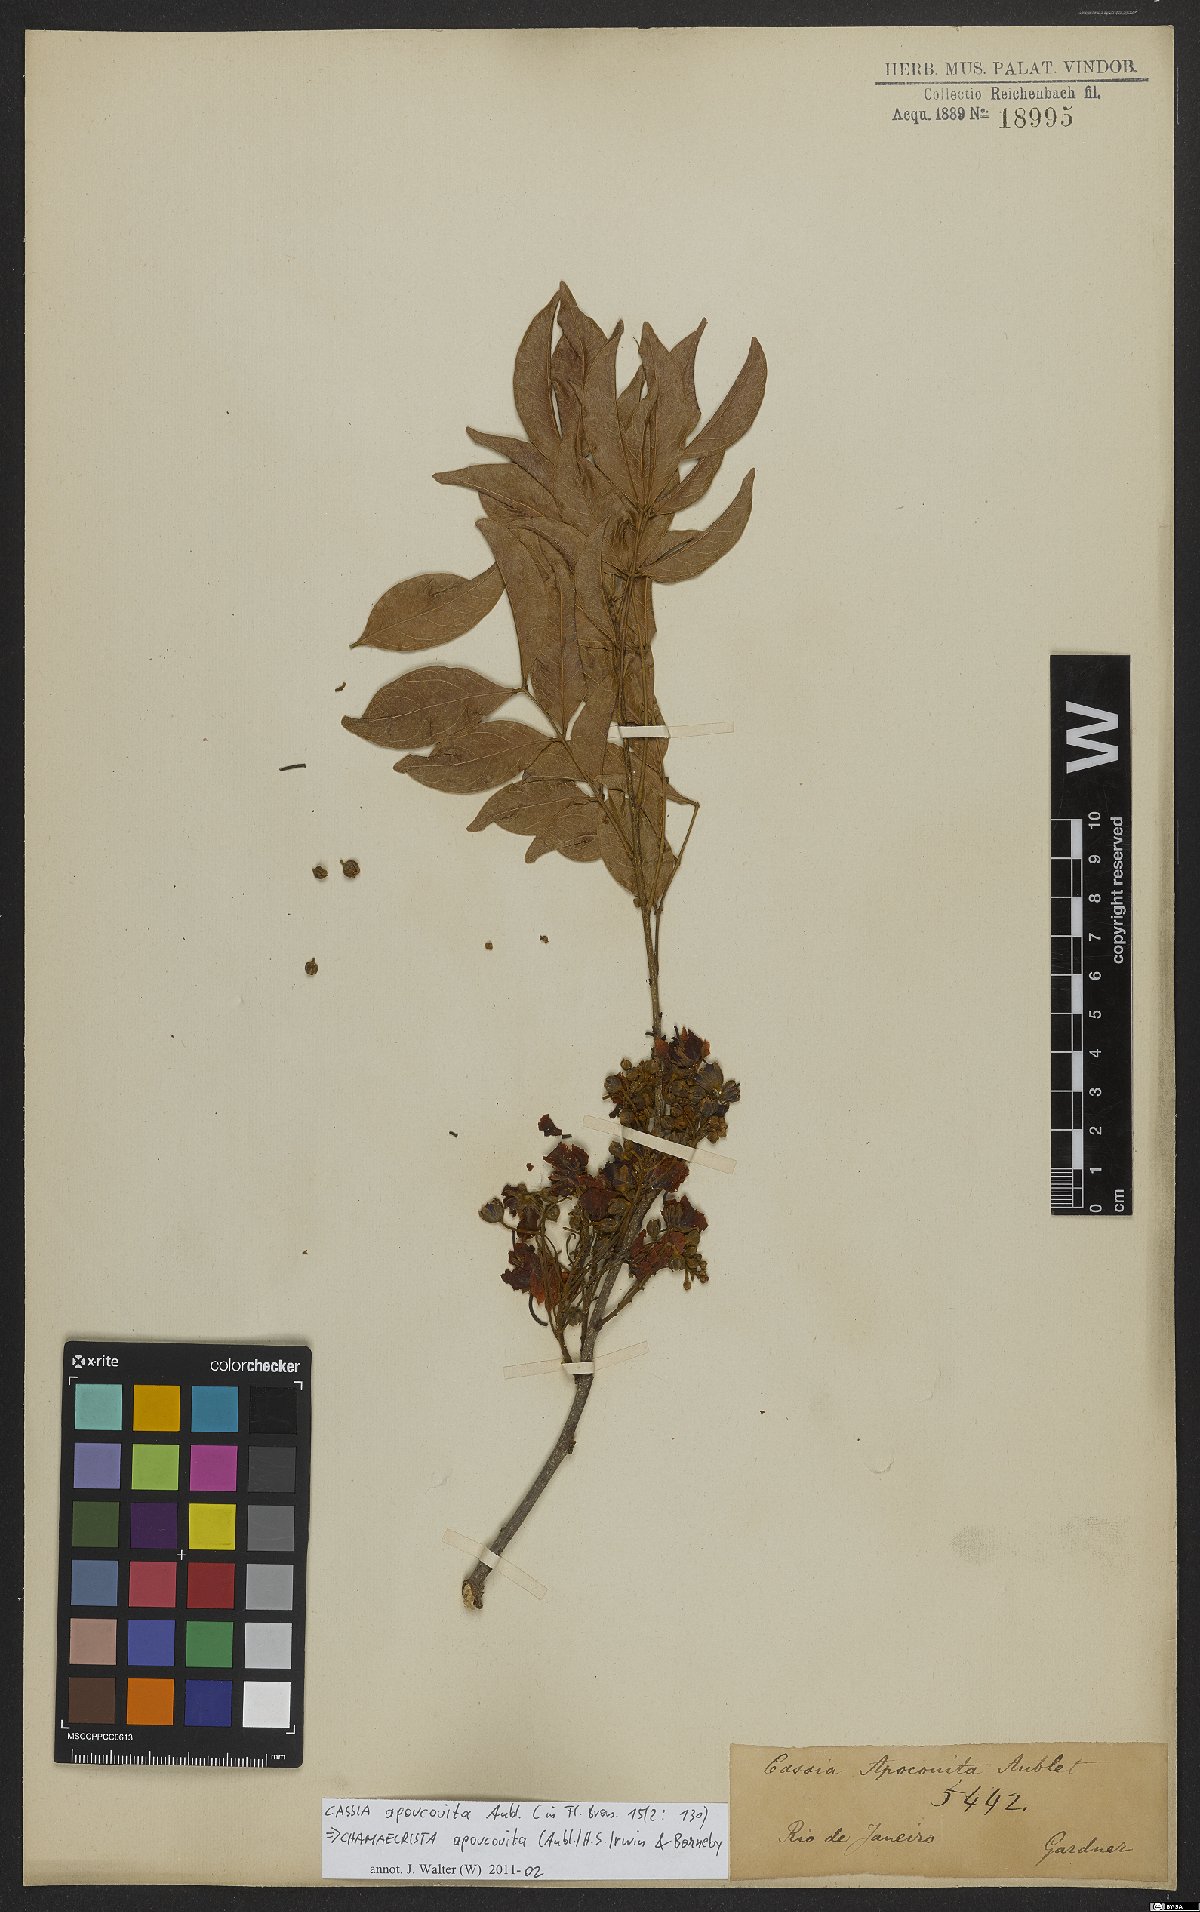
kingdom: Plantae
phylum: Tracheophyta
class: Magnoliopsida
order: Fabales
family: Fabaceae
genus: Chamaecrista
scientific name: Chamaecrista apoucouita
